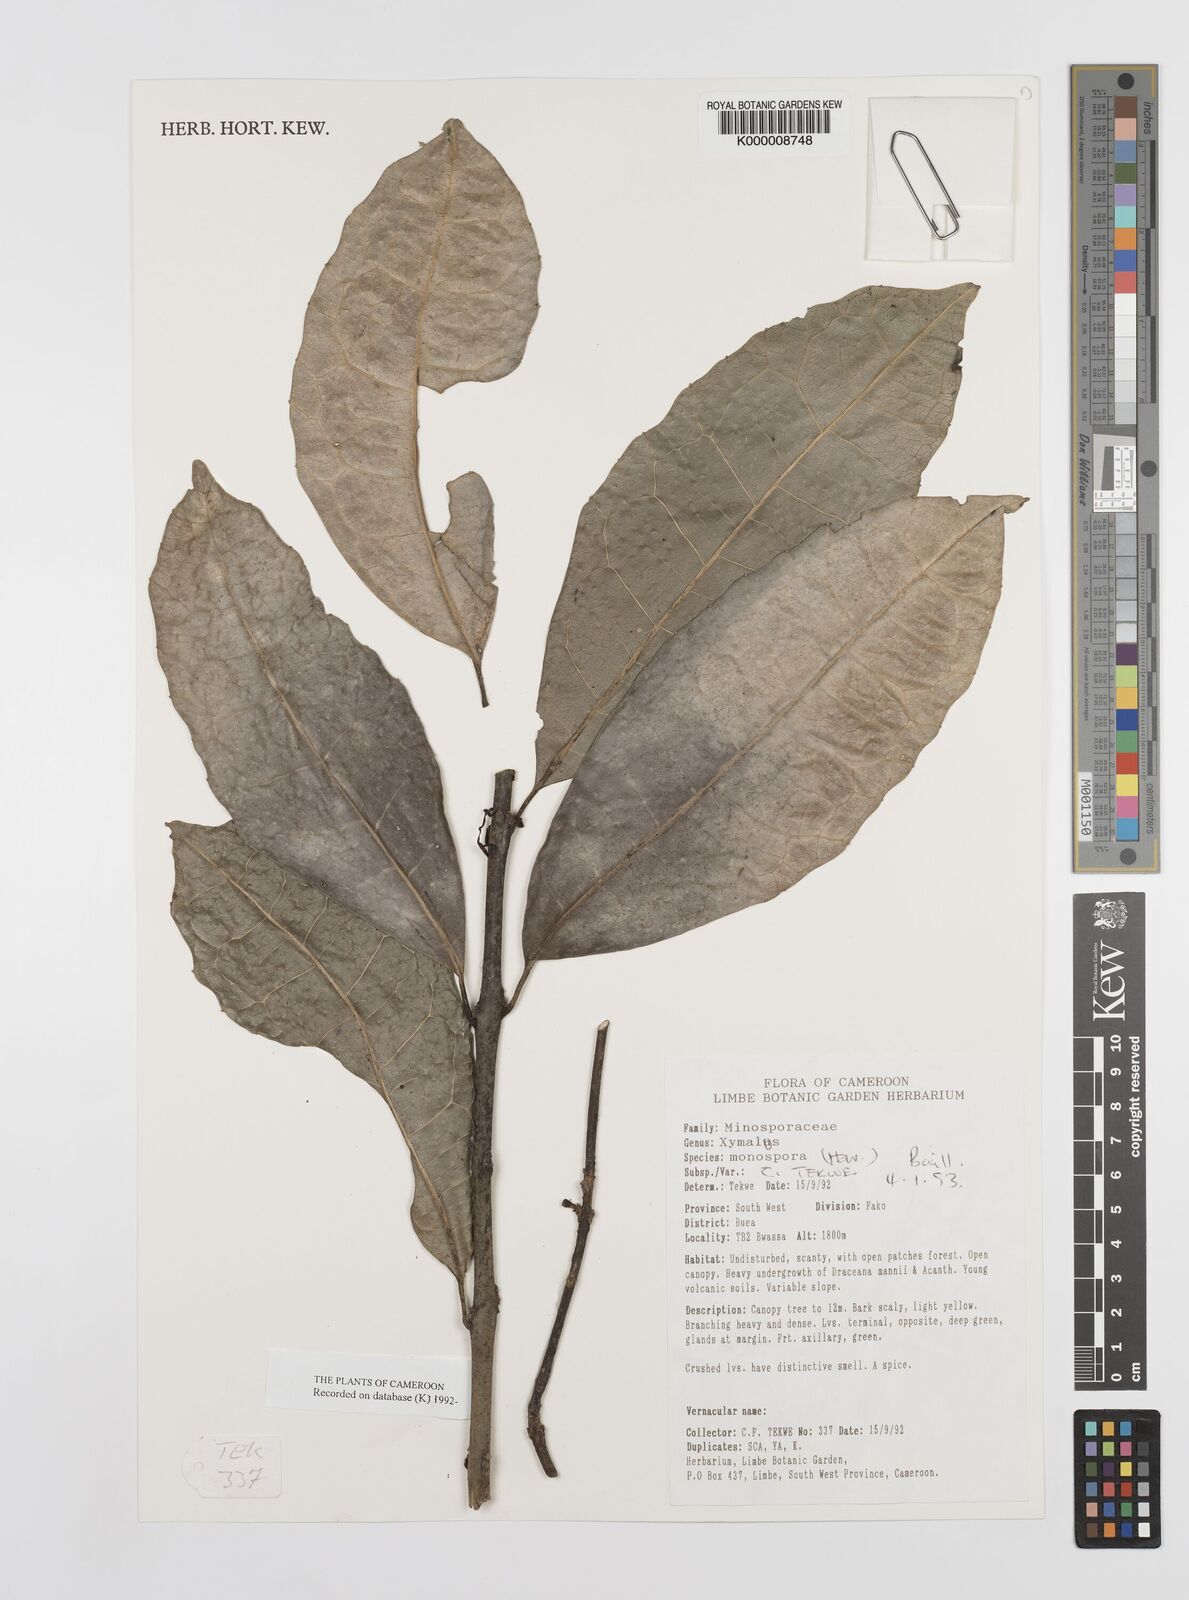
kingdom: Plantae
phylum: Tracheophyta
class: Magnoliopsida
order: Laurales
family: Monimiaceae
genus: Xymalos
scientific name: Xymalos
